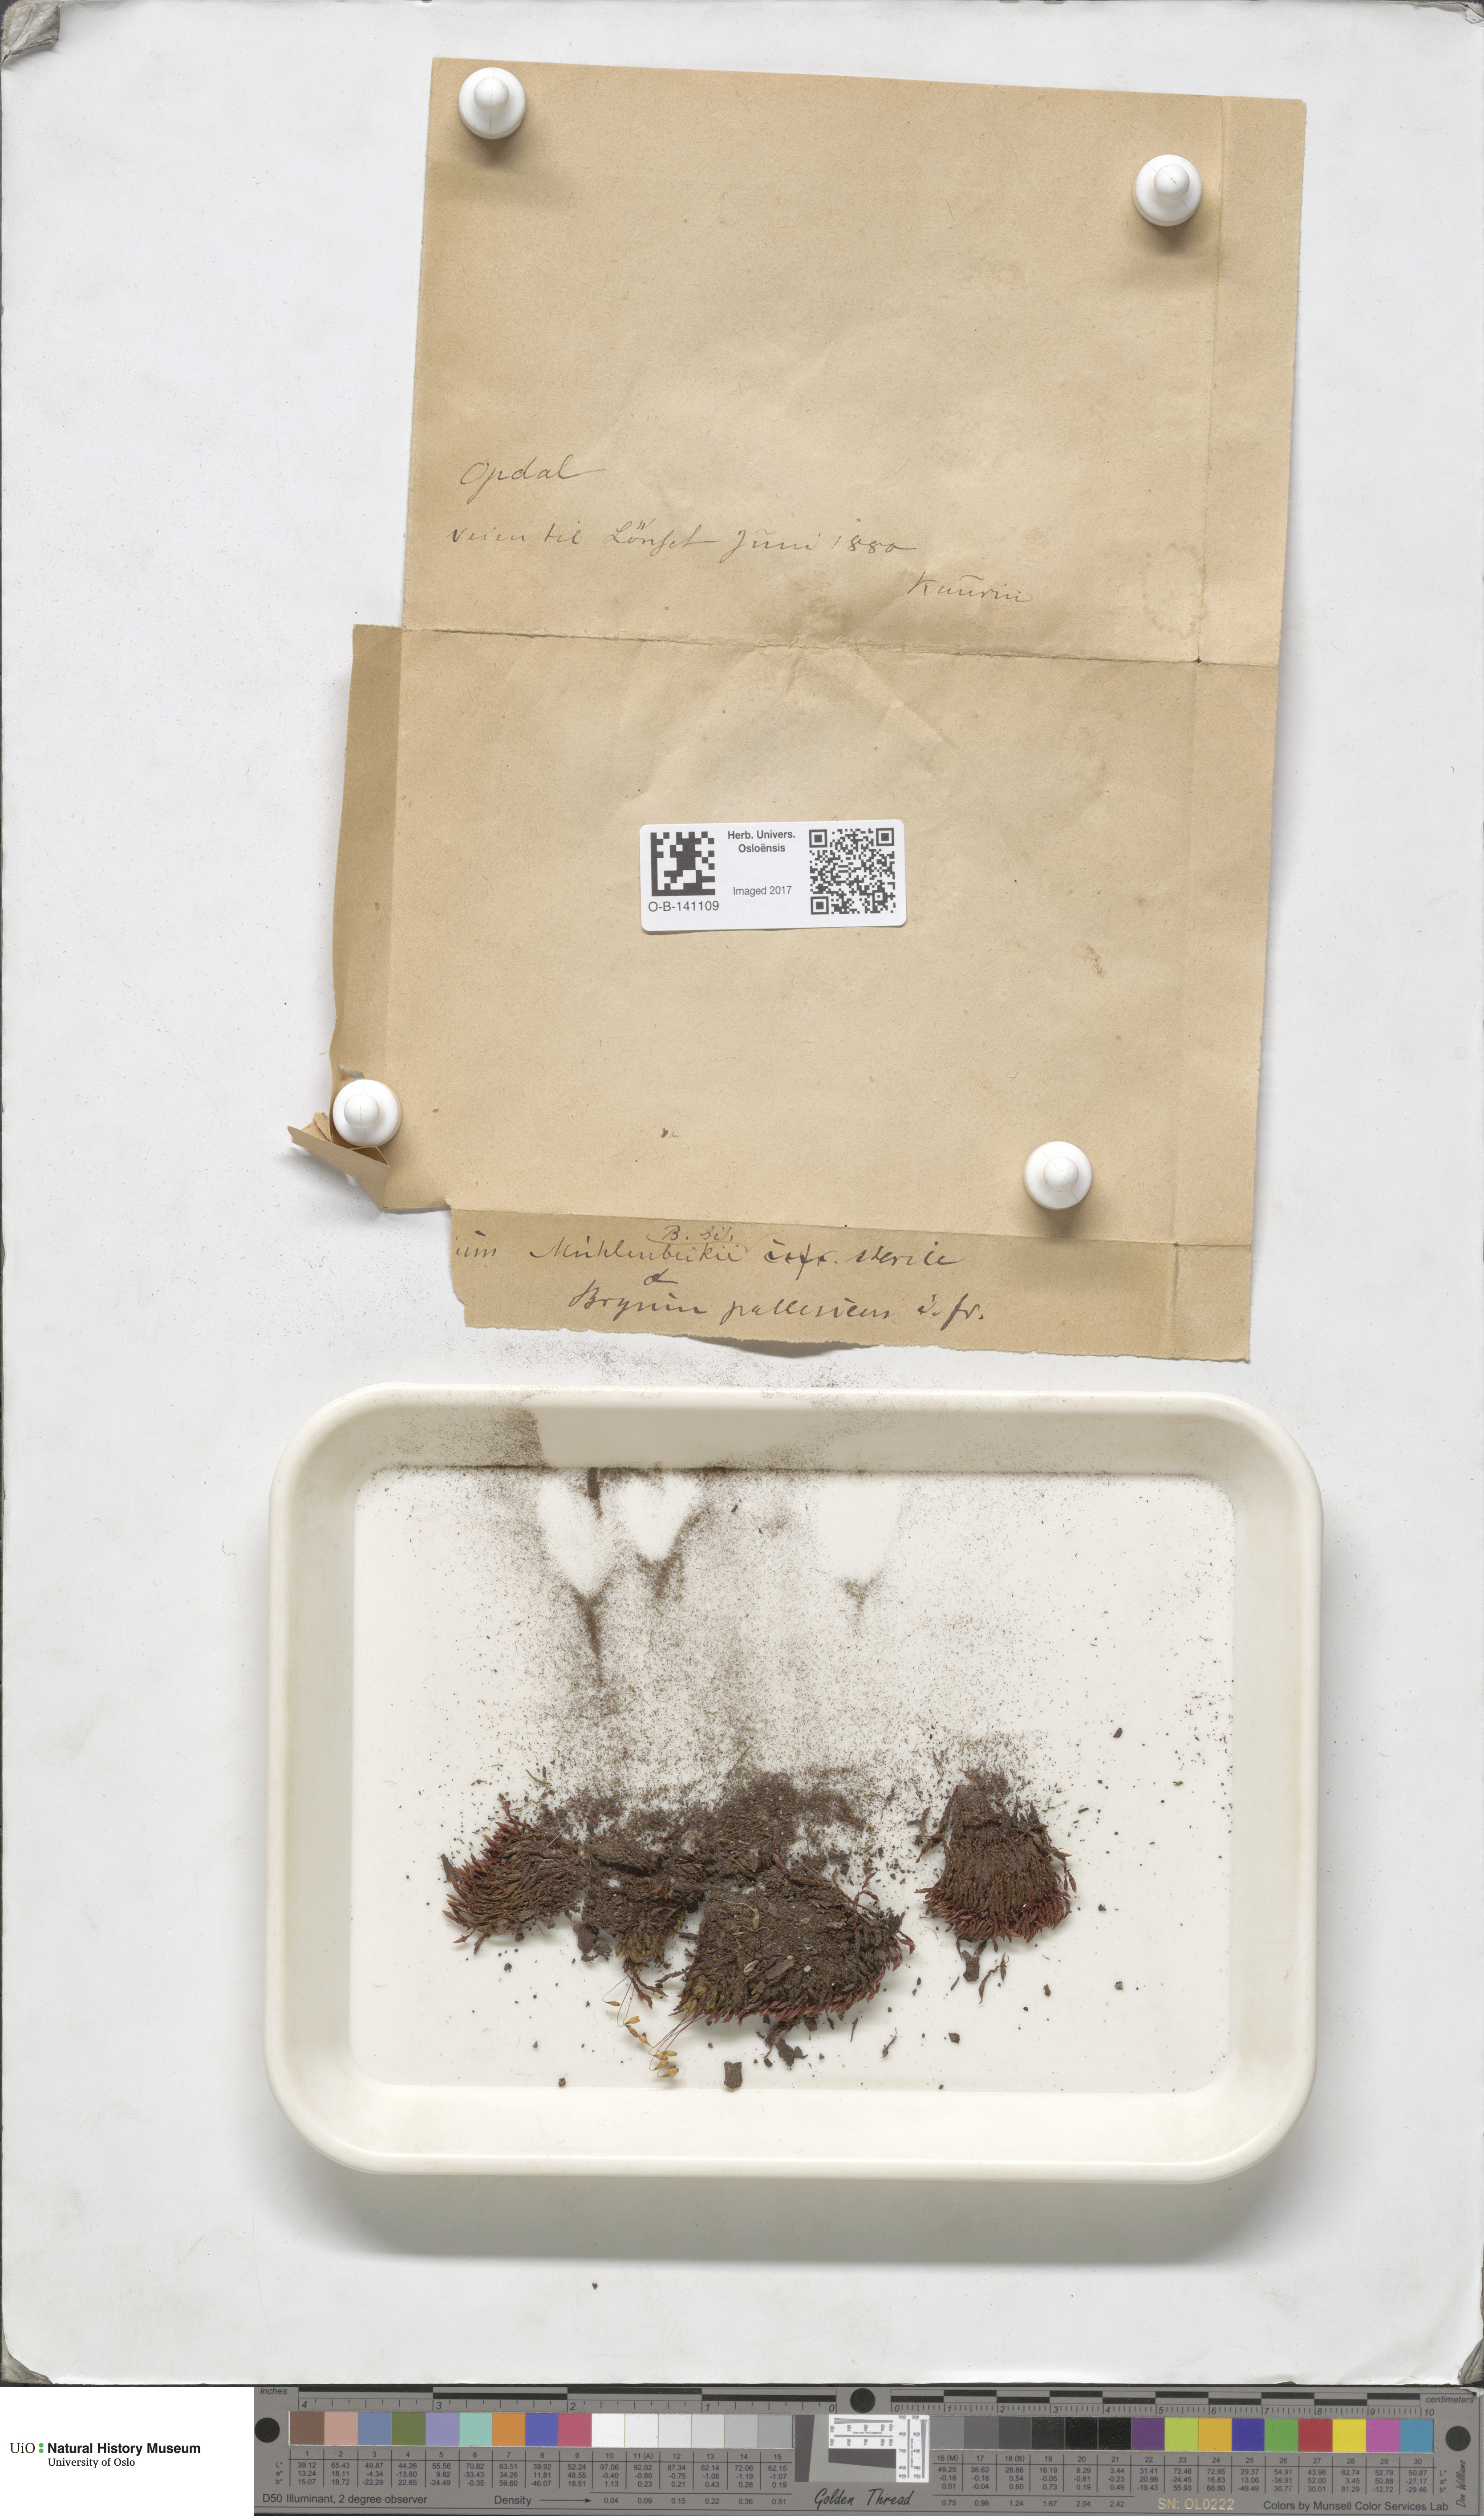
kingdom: Plantae
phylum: Bryophyta
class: Bryopsida
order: Bryales
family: Bryaceae
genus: Ptychostomum
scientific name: Ptychostomum pallens
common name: Pale thread-moss
